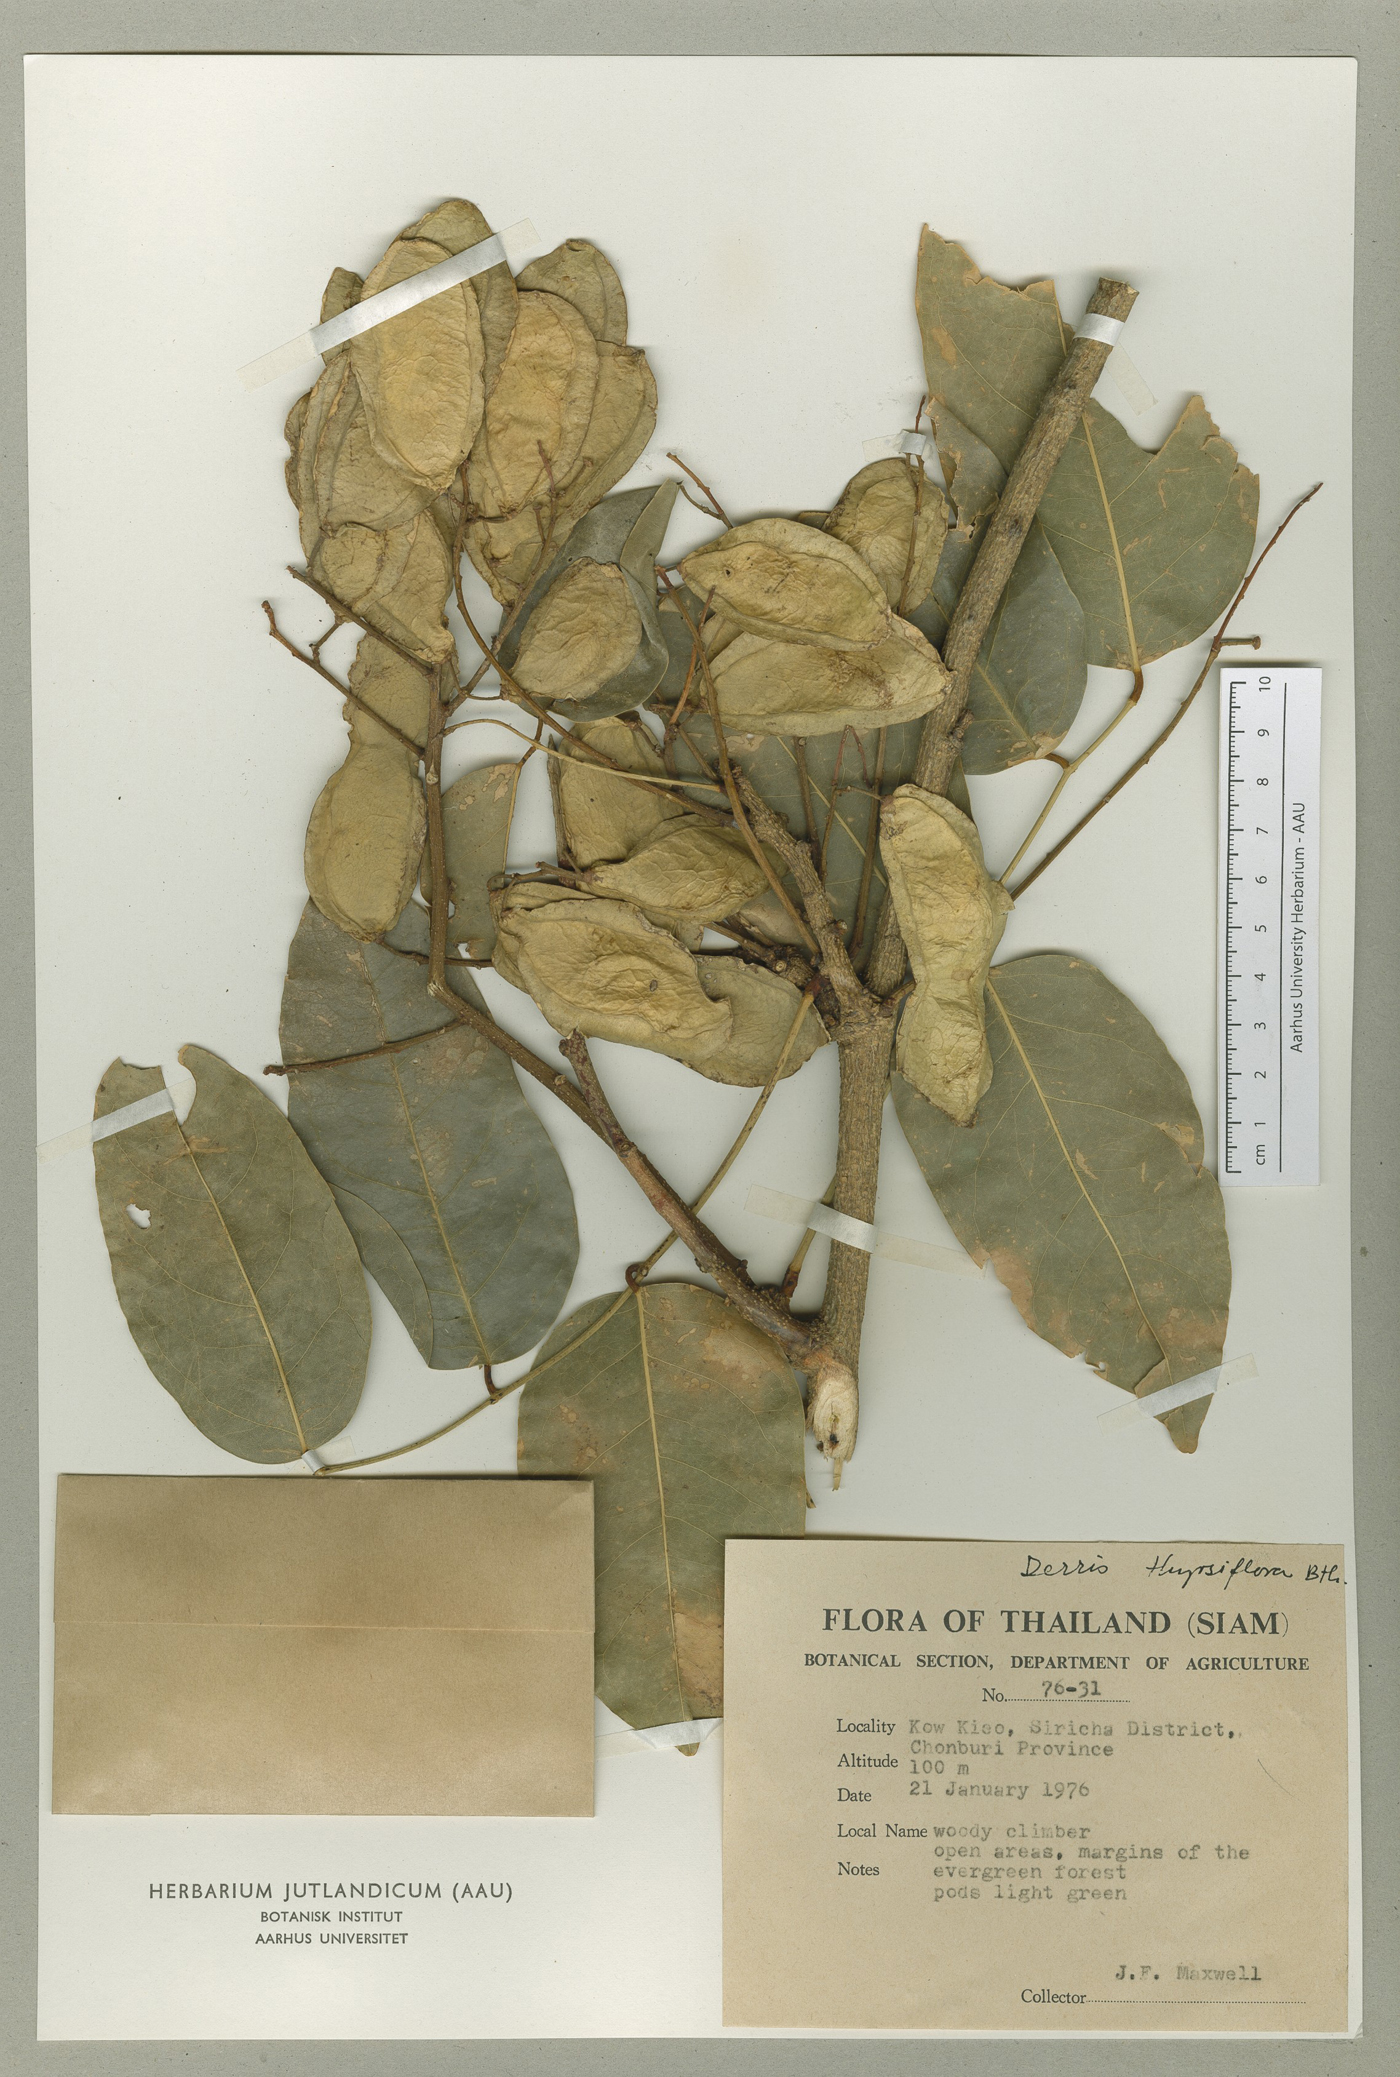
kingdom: Plantae
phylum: Tracheophyta
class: Magnoliopsida
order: Fabales
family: Fabaceae
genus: Aganope
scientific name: Aganope thyrsiflora
